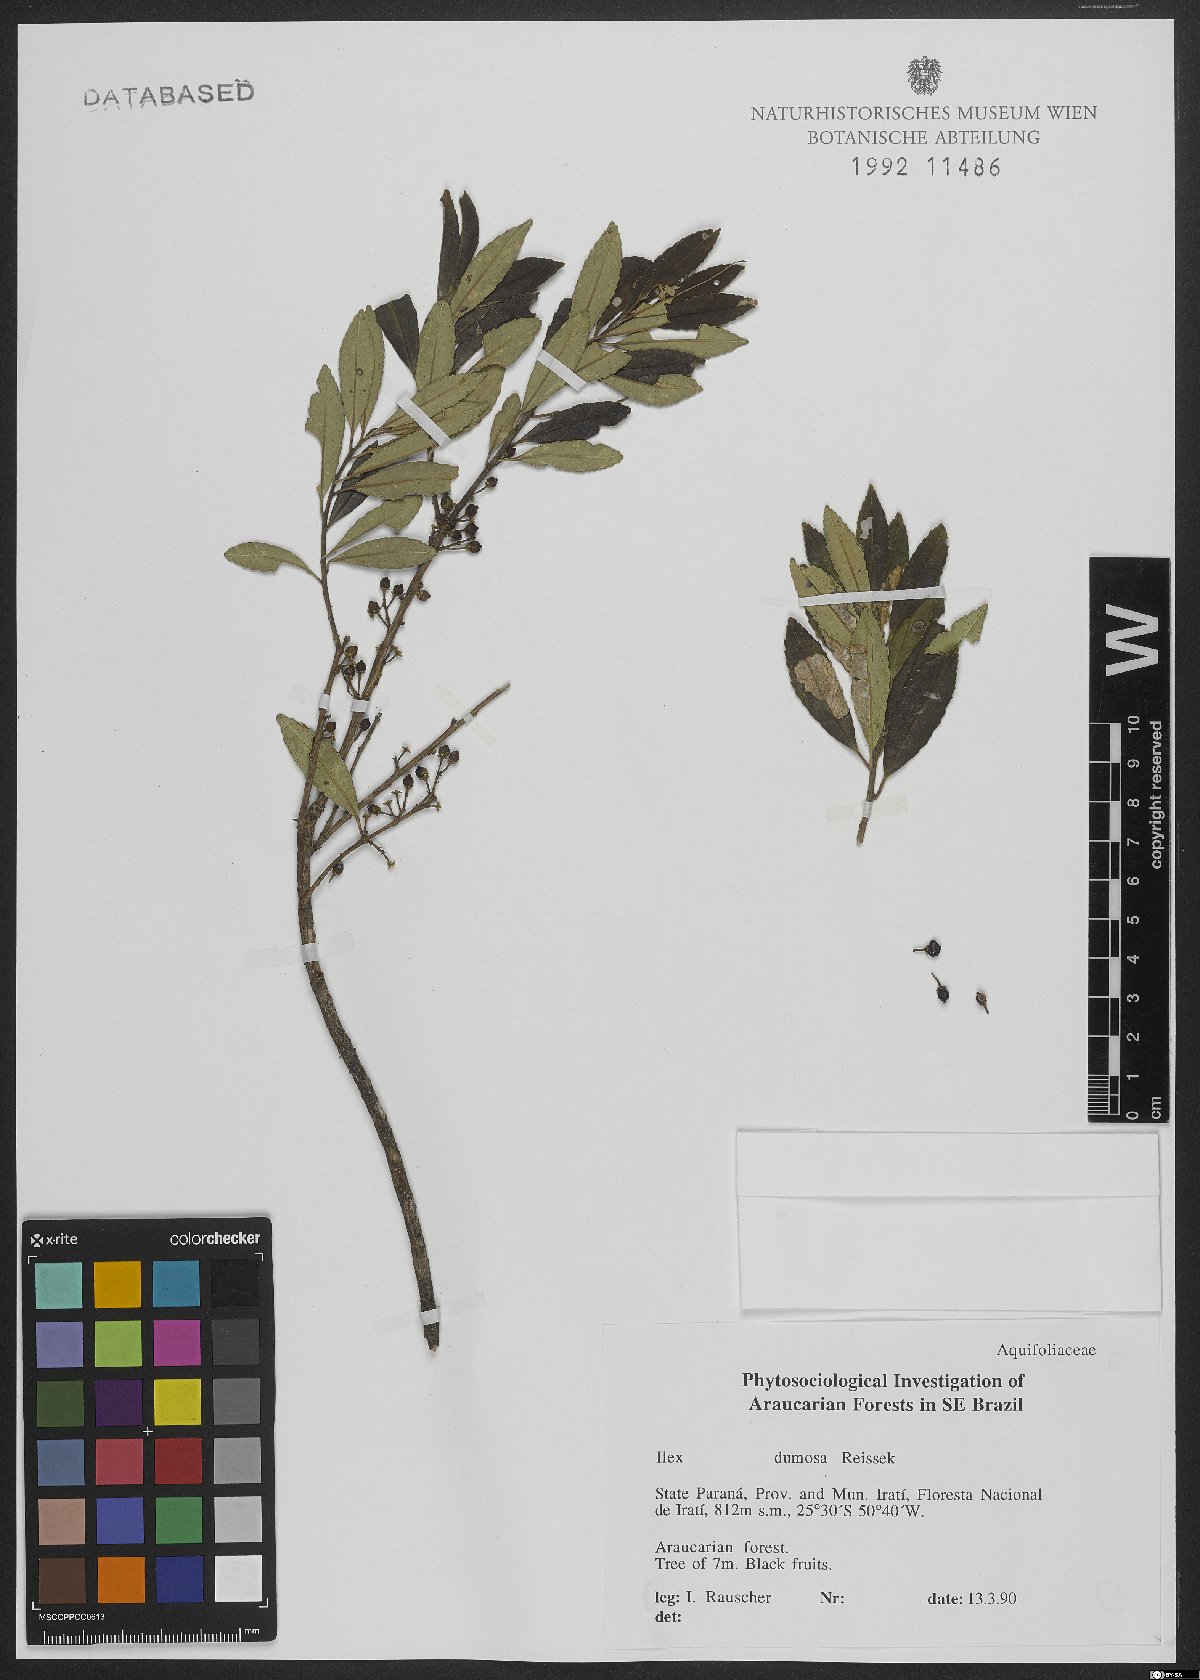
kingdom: Plantae
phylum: Tracheophyta
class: Magnoliopsida
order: Aquifoliales
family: Aquifoliaceae
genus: Ilex
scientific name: Ilex dumosa
